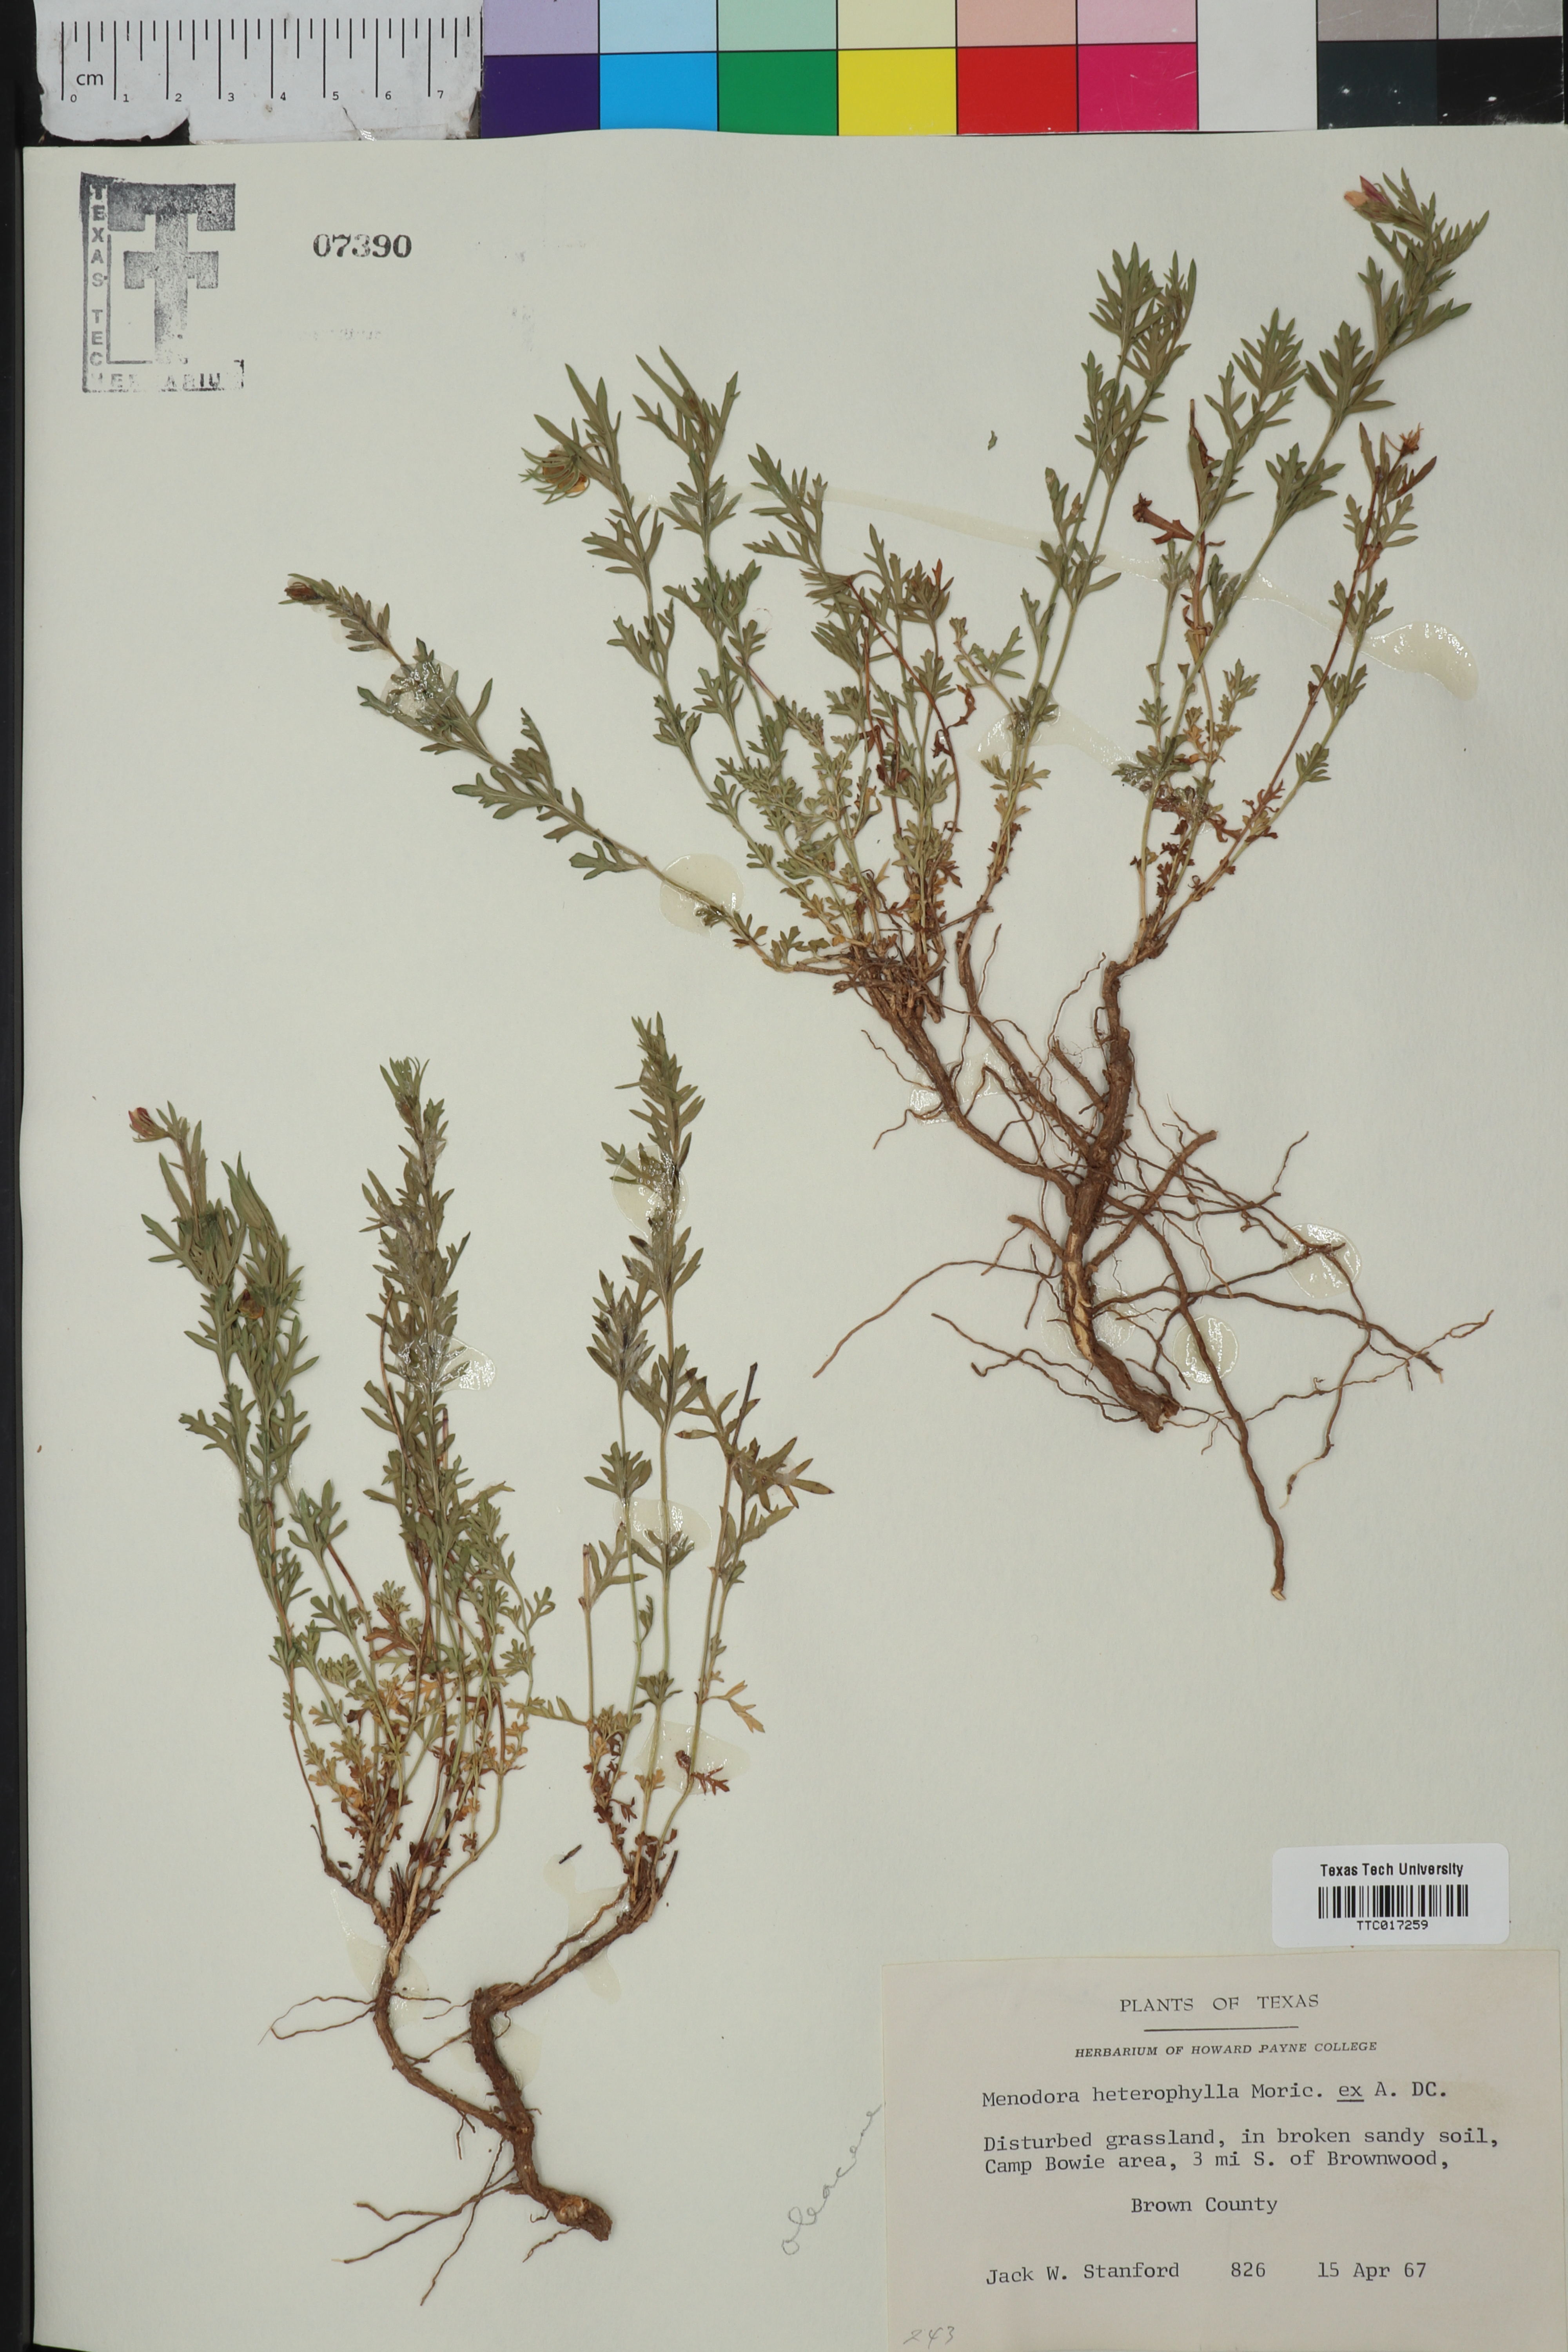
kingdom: Plantae
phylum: Tracheophyta
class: Magnoliopsida
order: Lamiales
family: Oleaceae
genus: Menodora
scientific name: Menodora heterophylla
